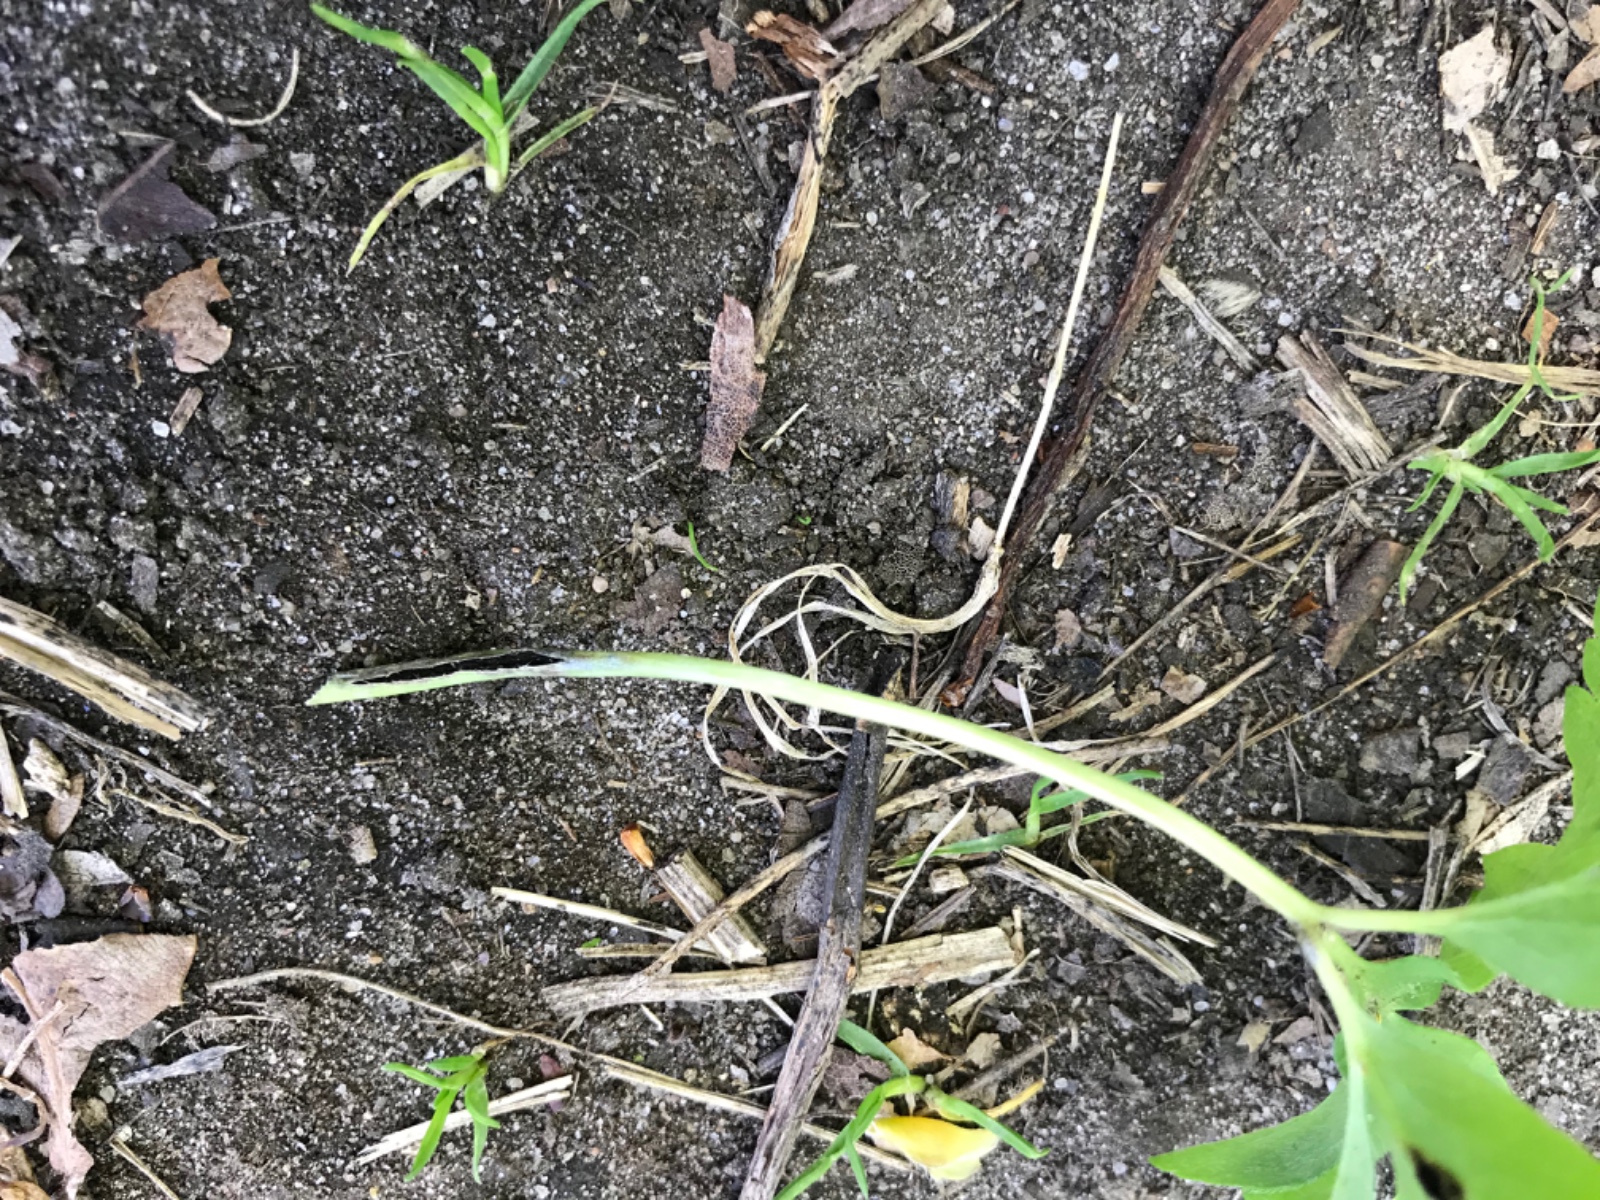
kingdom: Fungi
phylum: Basidiomycota
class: Ustilaginomycetes
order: Urocystidales
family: Urocystidaceae
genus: Urocystis
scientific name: Urocystis anemones
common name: anemone-brand
